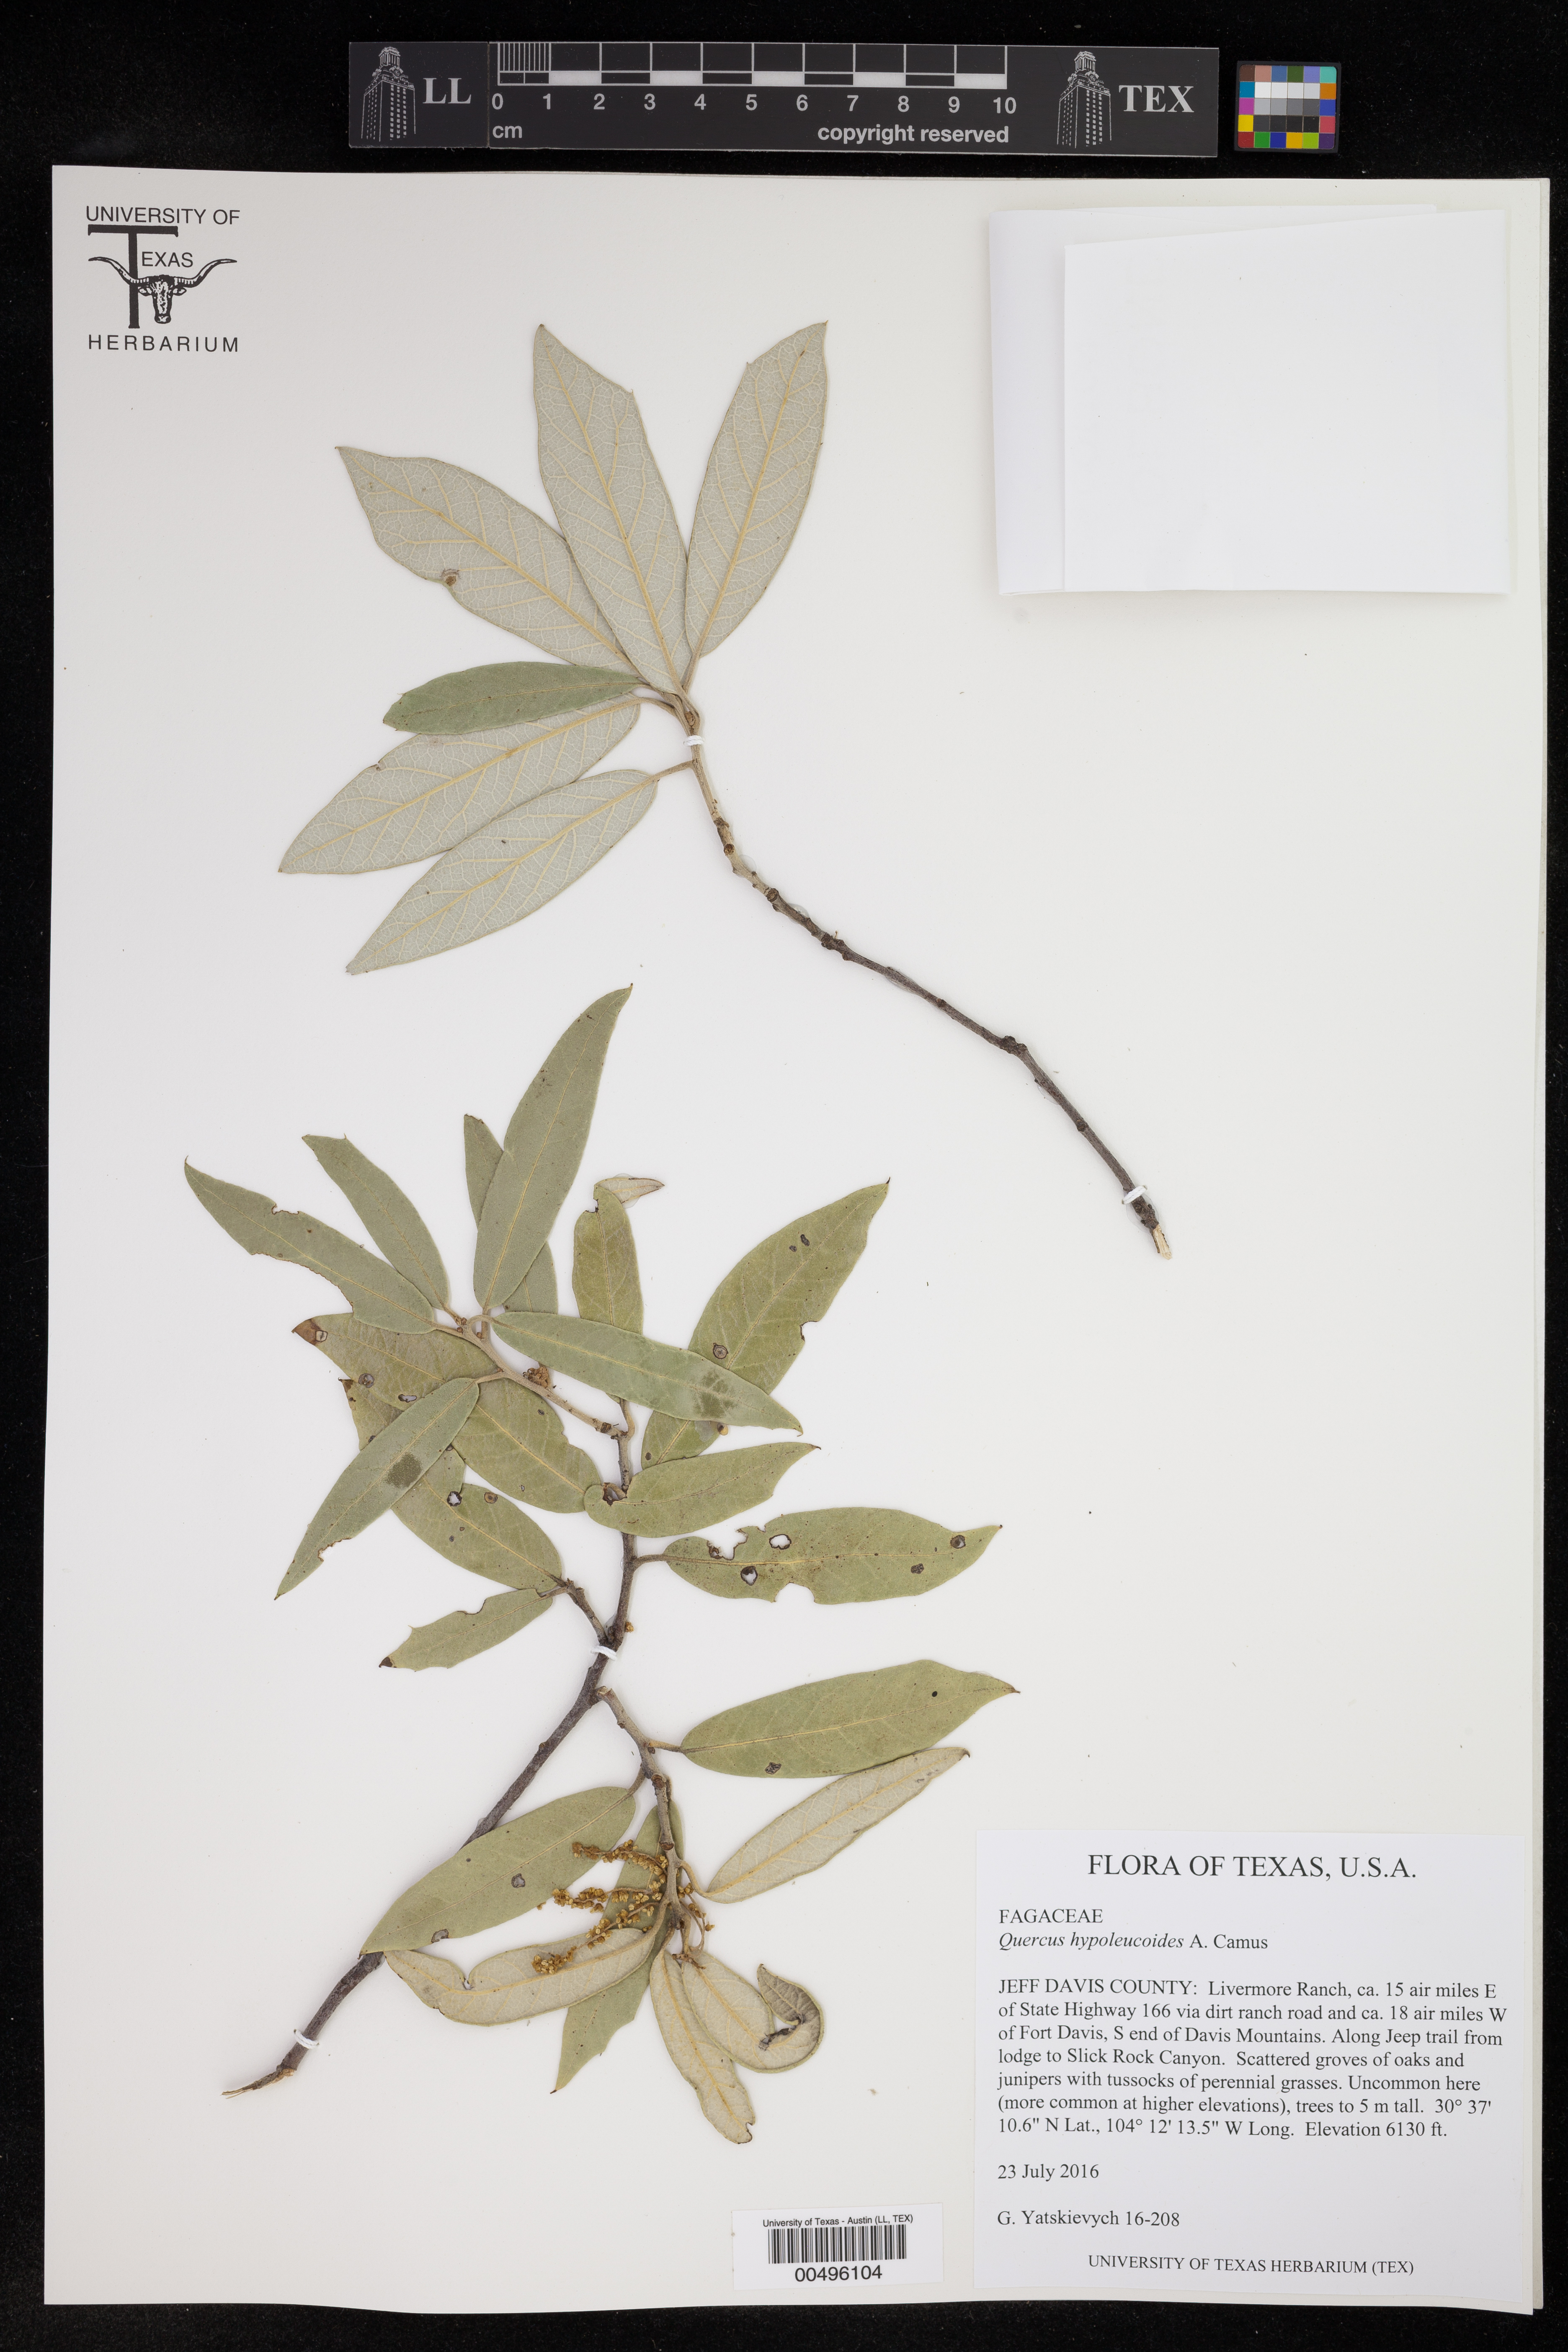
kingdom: Plantae
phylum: Tracheophyta
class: Magnoliopsida
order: Fagales
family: Fagaceae
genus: Quercus
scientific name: Quercus hypoleucoides
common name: Silverleaf oak
